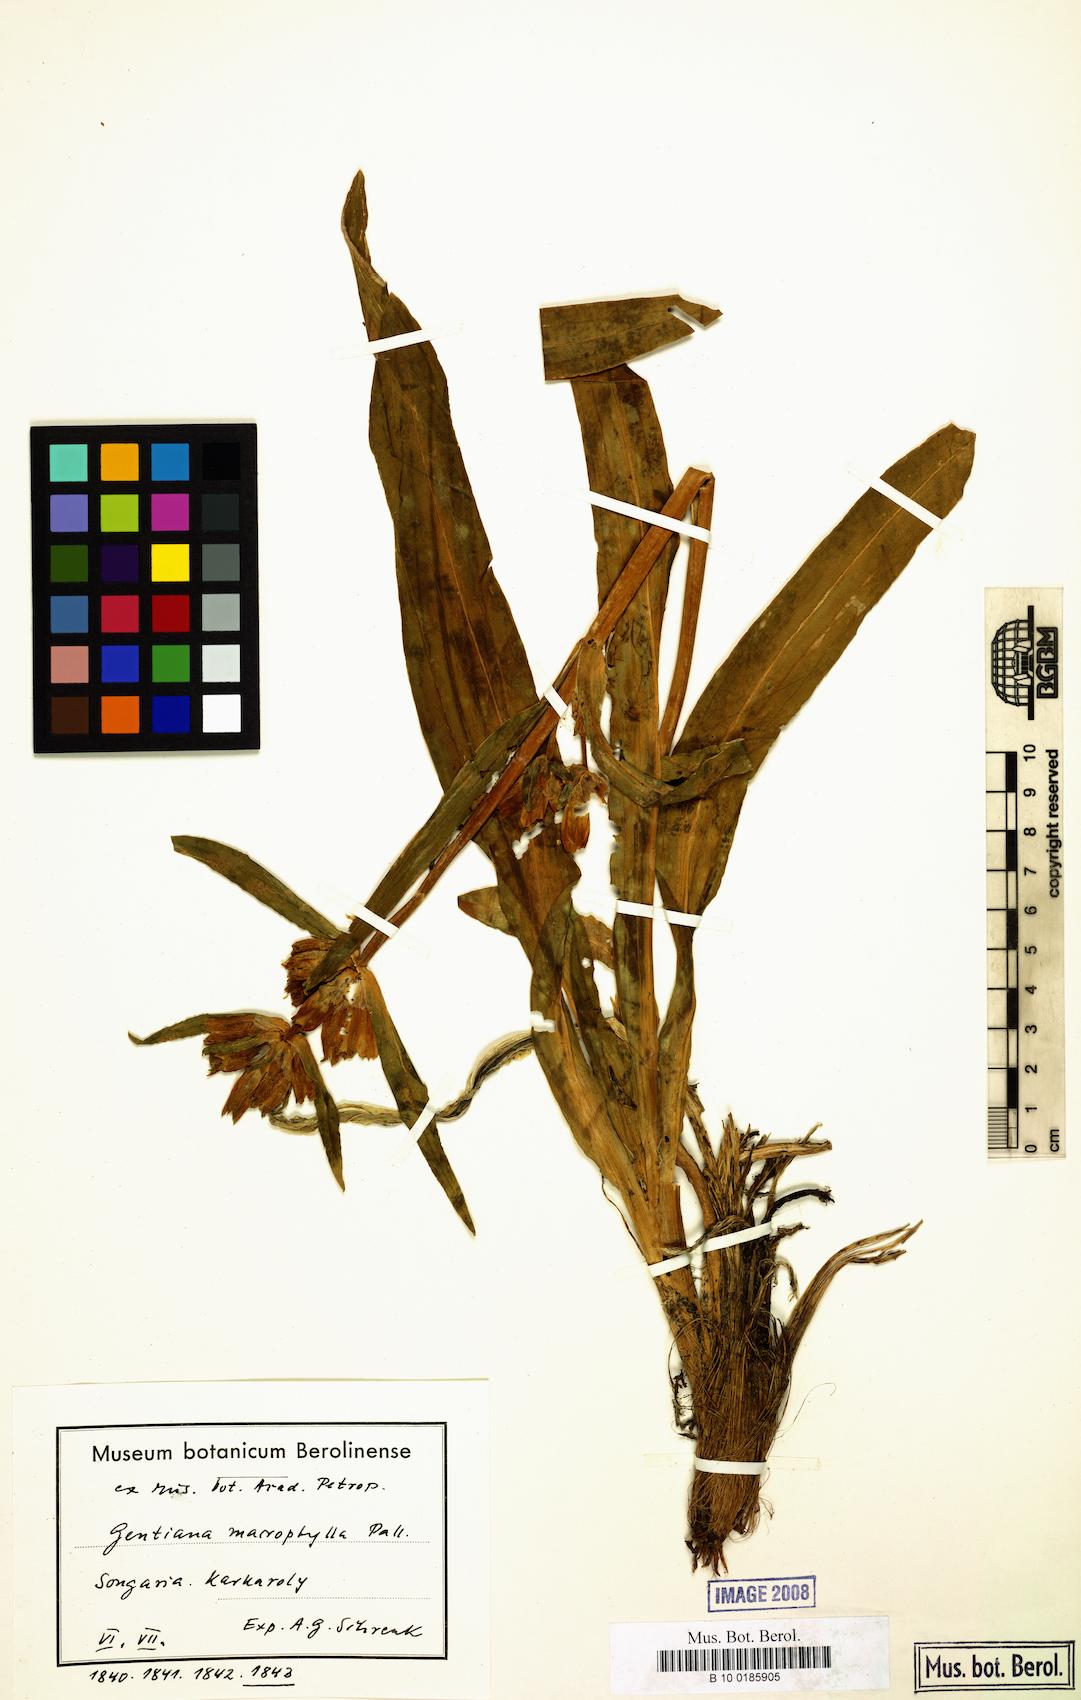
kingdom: Plantae
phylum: Tracheophyta
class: Magnoliopsida
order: Gentianales
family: Gentianaceae
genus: Gentiana
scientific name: Gentiana decumbens
